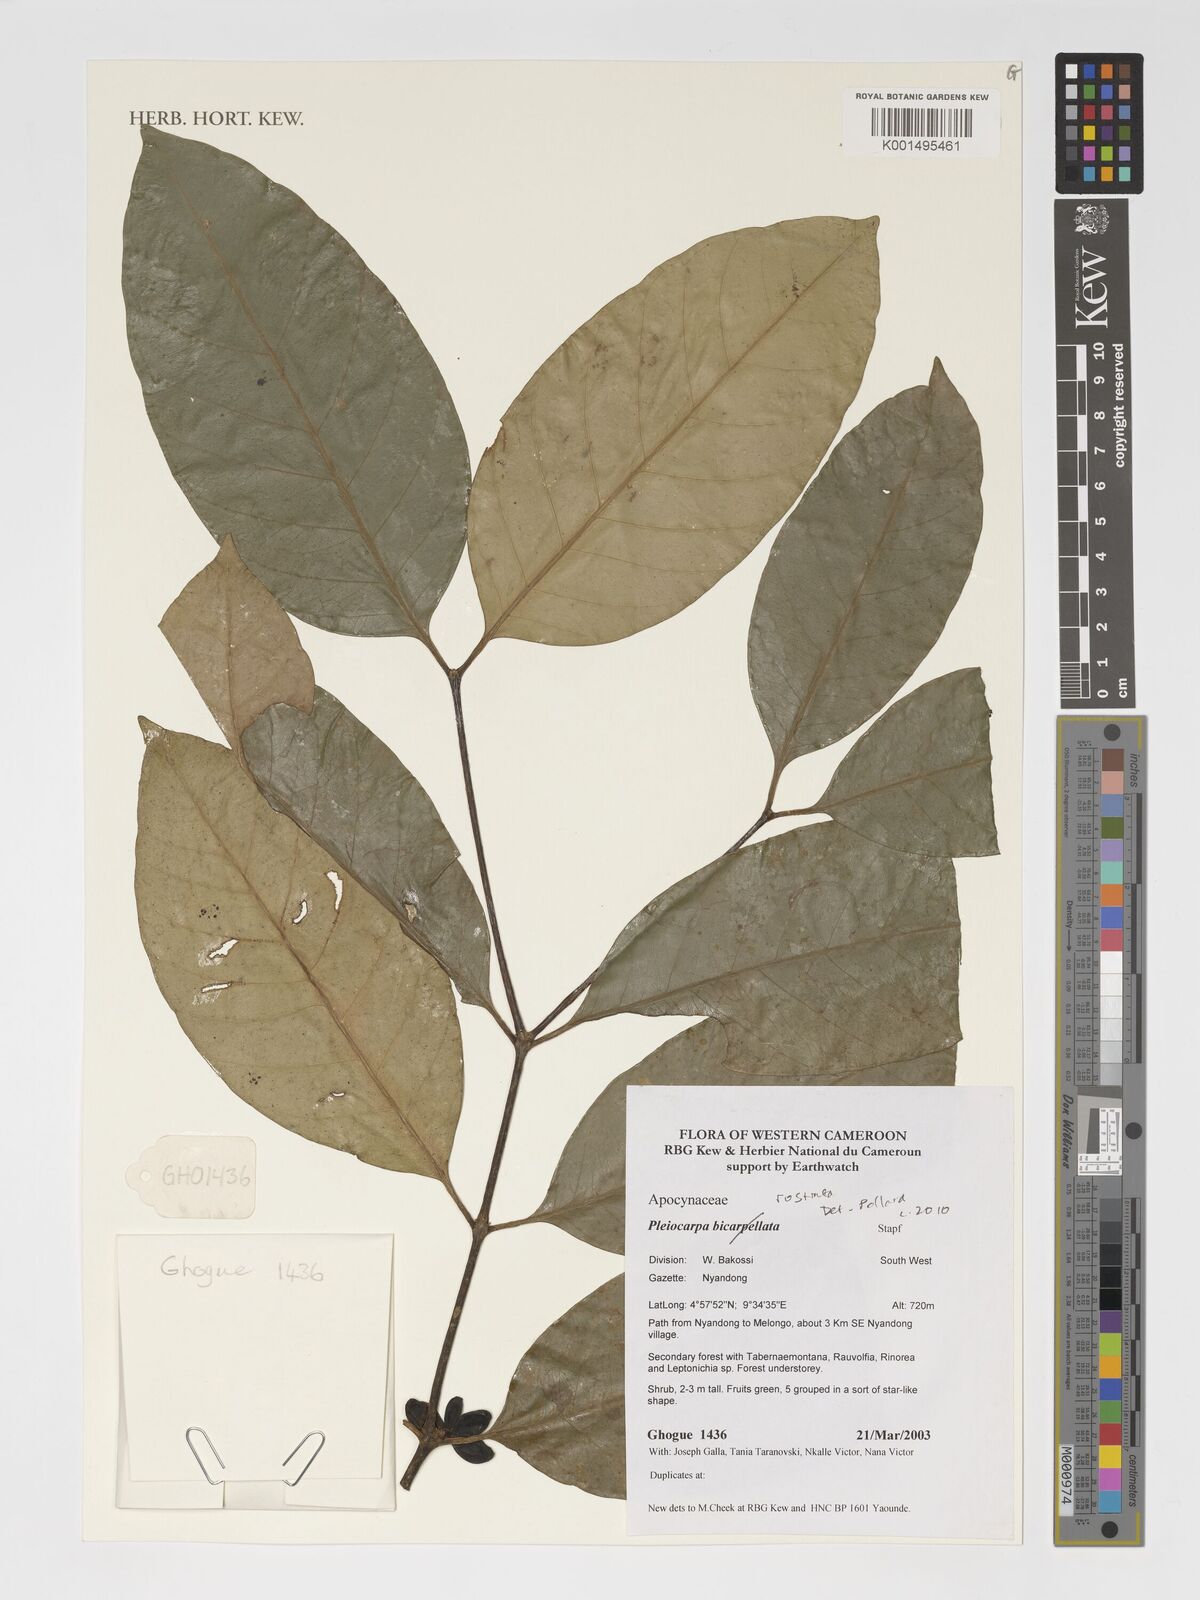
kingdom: Plantae
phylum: Tracheophyta
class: Magnoliopsida
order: Gentianales
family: Apocynaceae
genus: Pleiocarpa
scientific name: Pleiocarpa rostrata
